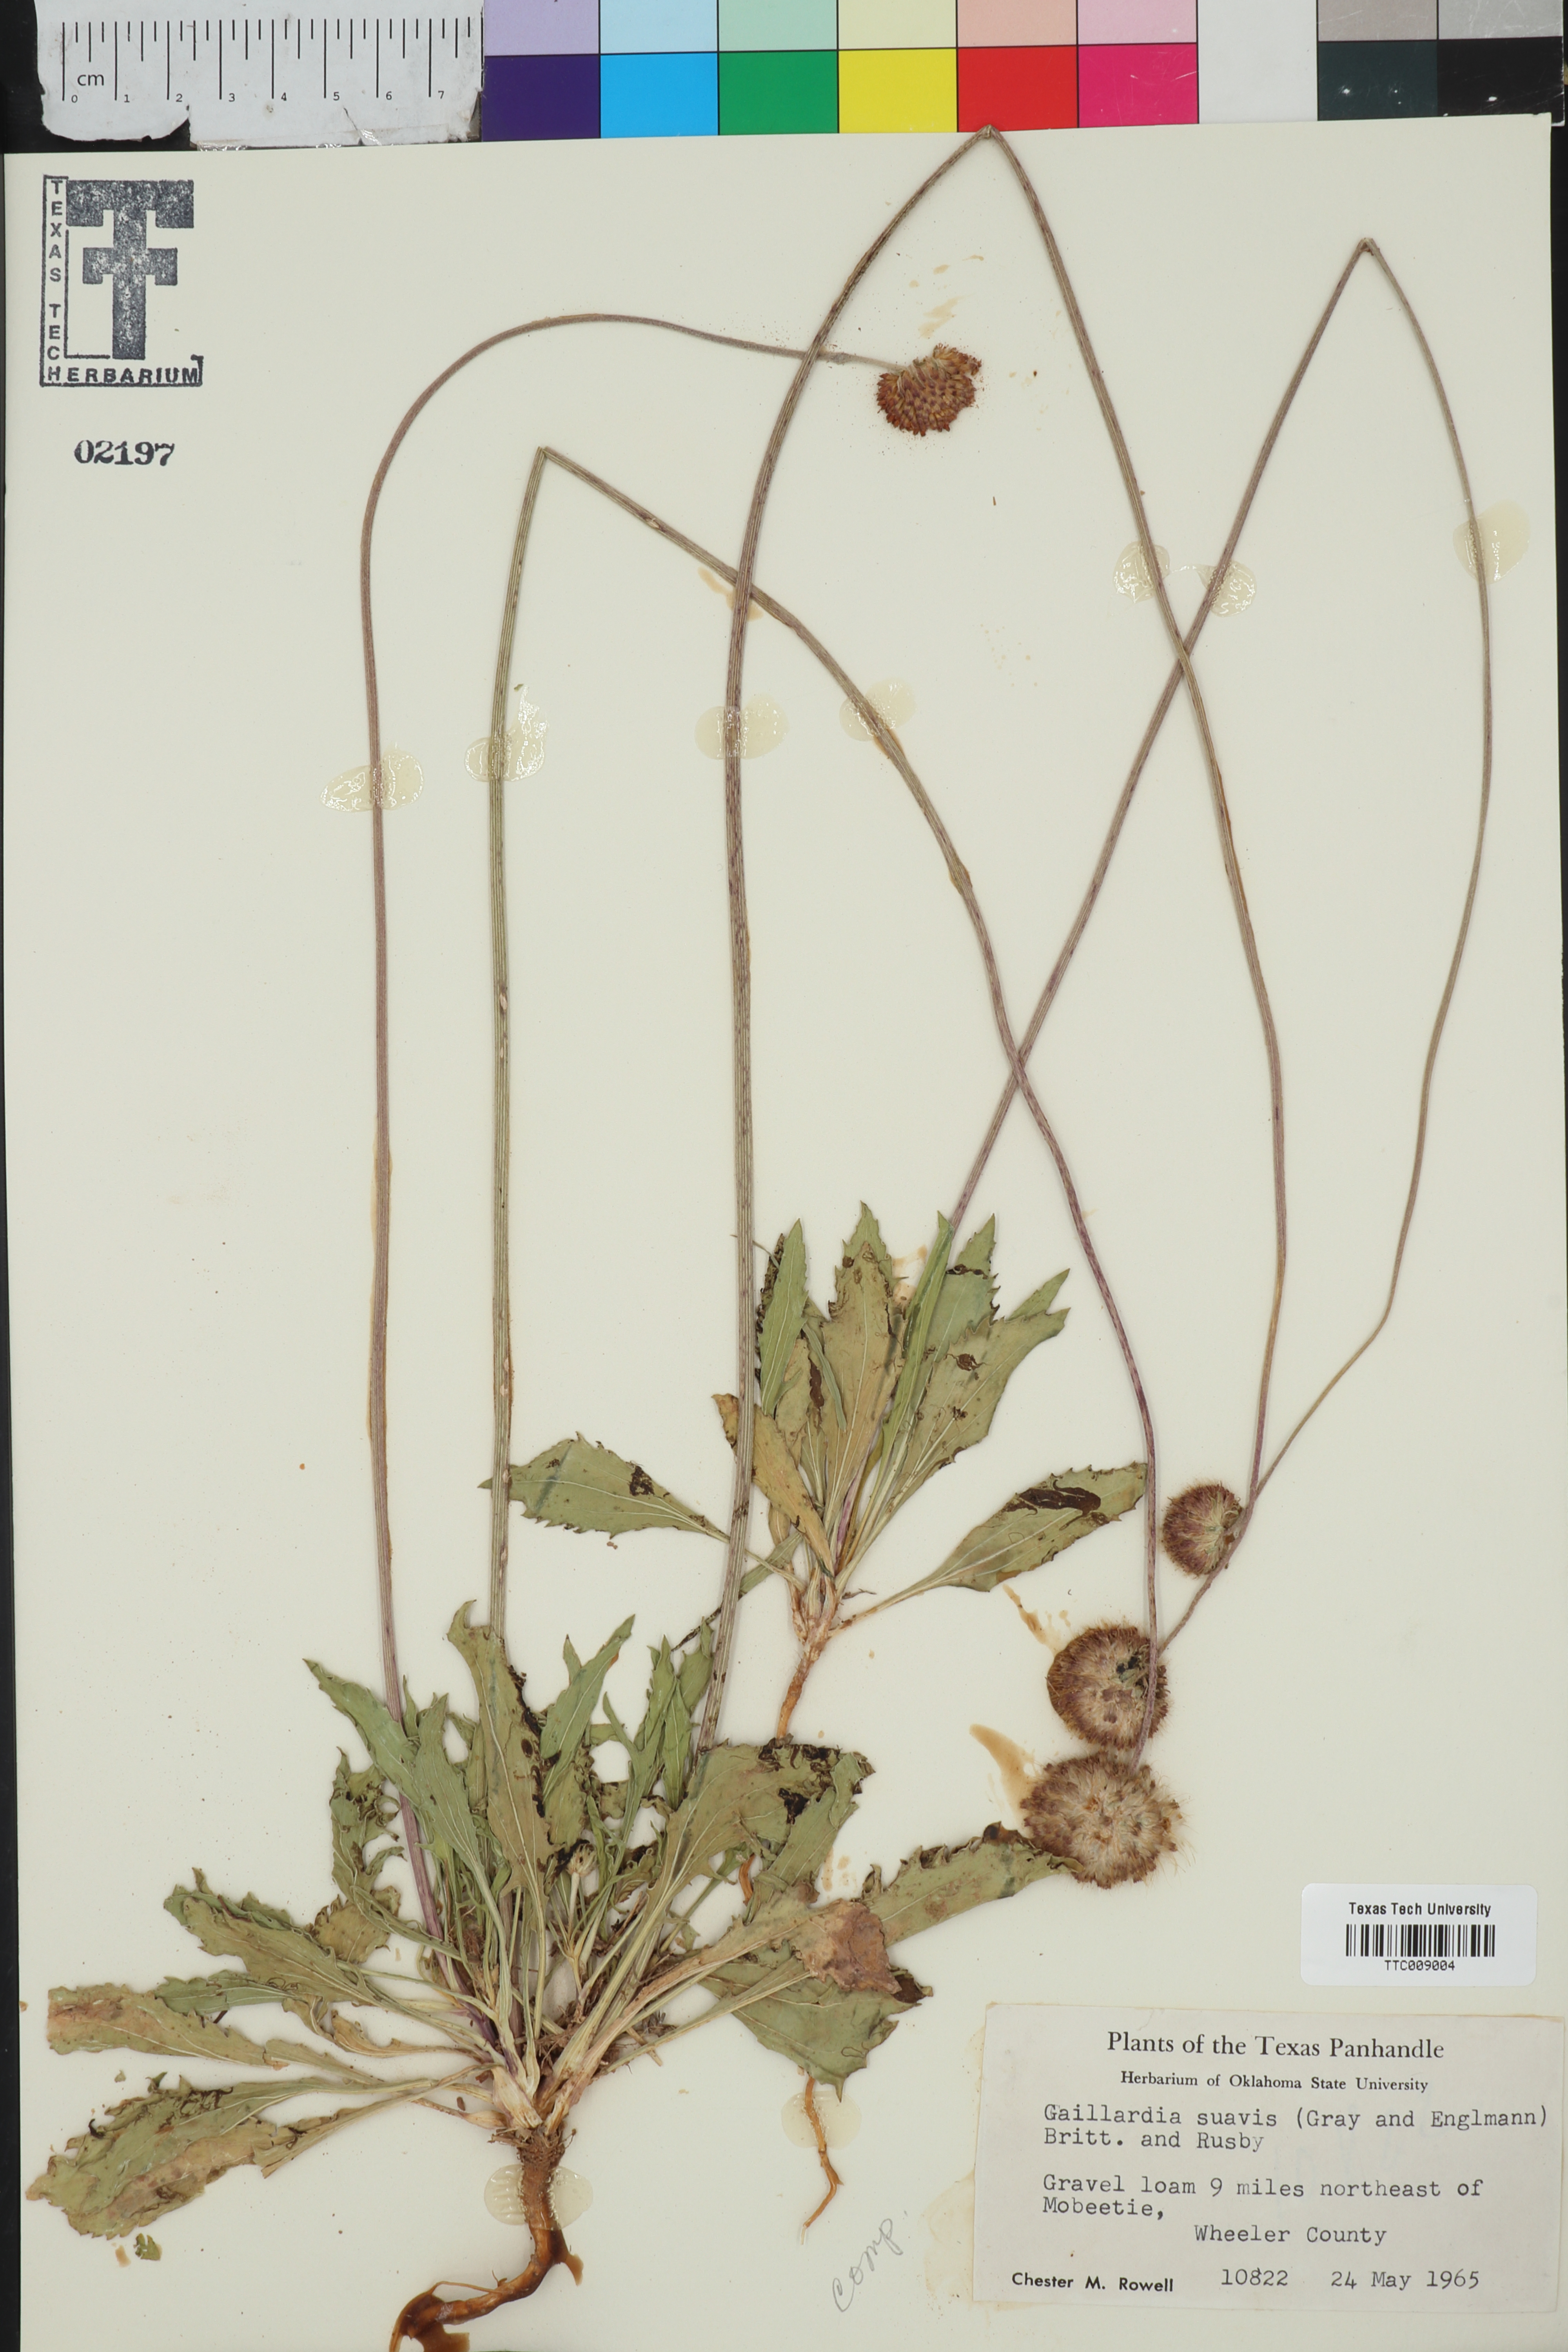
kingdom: Plantae
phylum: Tracheophyta
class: Magnoliopsida
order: Asterales
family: Asteraceae
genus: Gaillardia
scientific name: Gaillardia suavis
